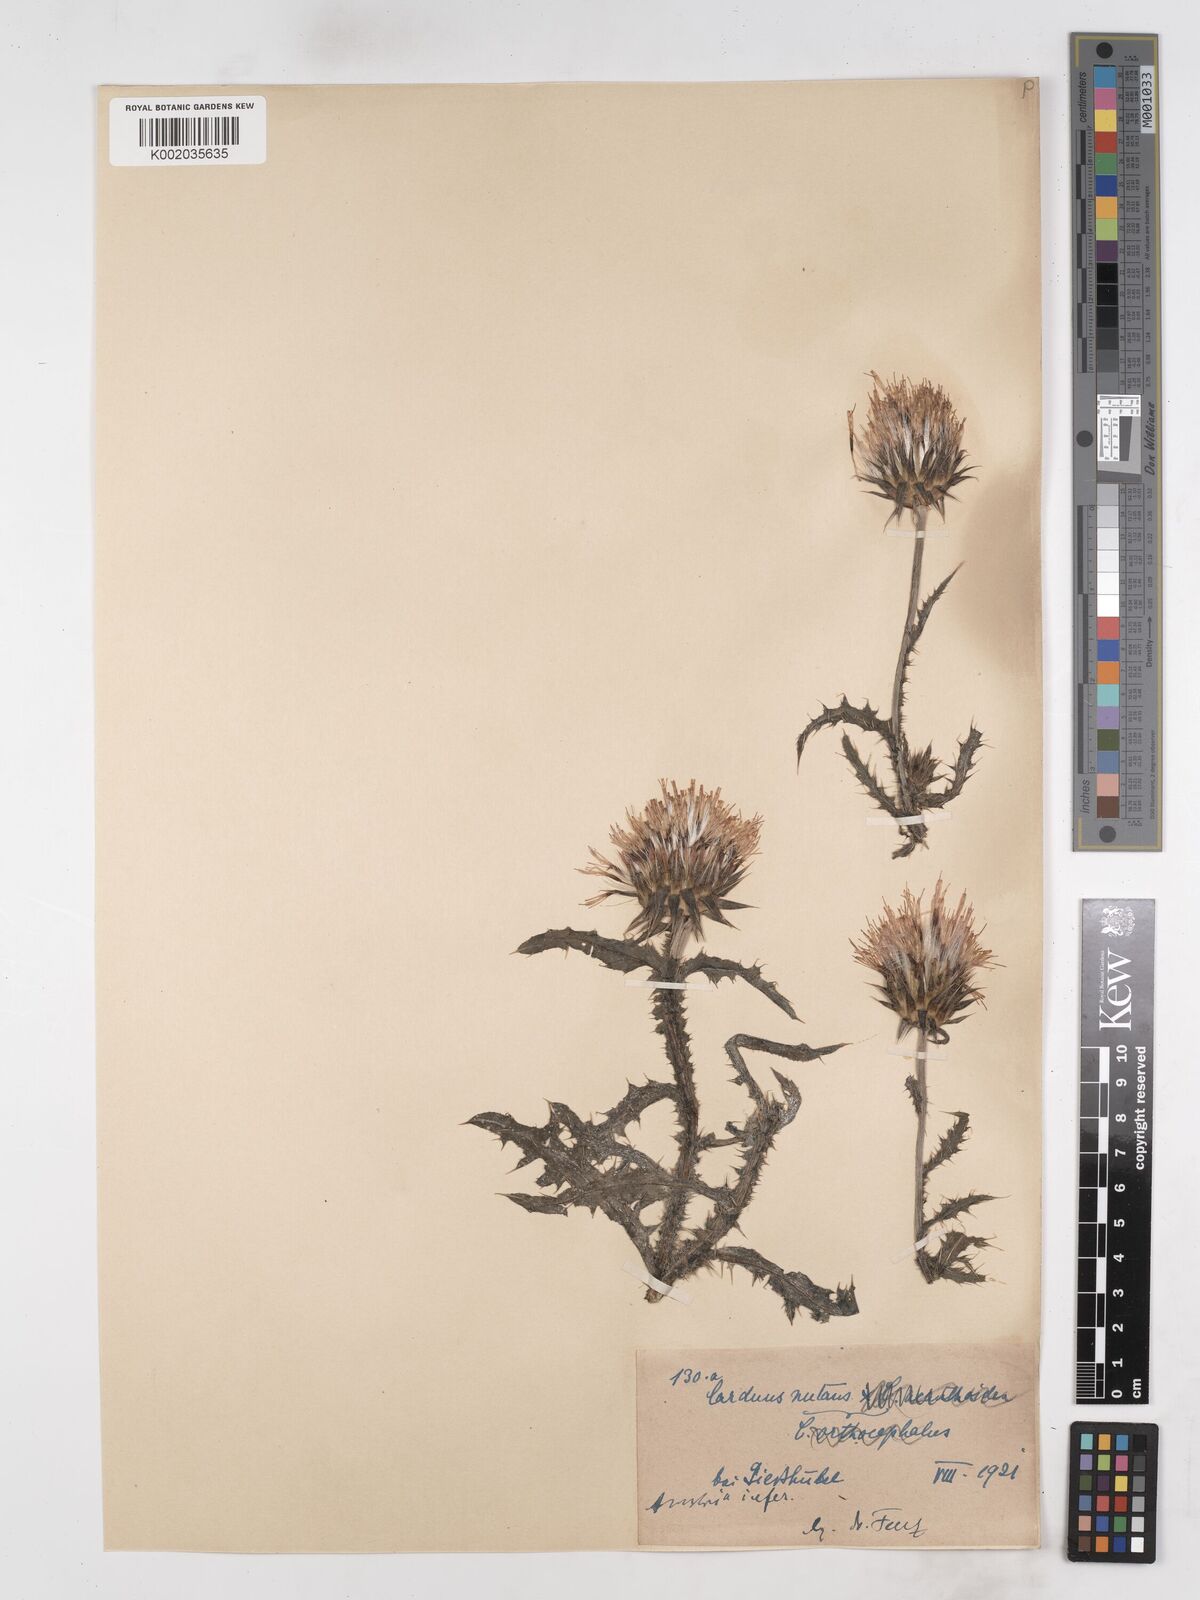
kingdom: Plantae
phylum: Tracheophyta
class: Magnoliopsida
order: Asterales
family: Asteraceae
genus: Carduus
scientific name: Carduus nutans
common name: Musk thistle
